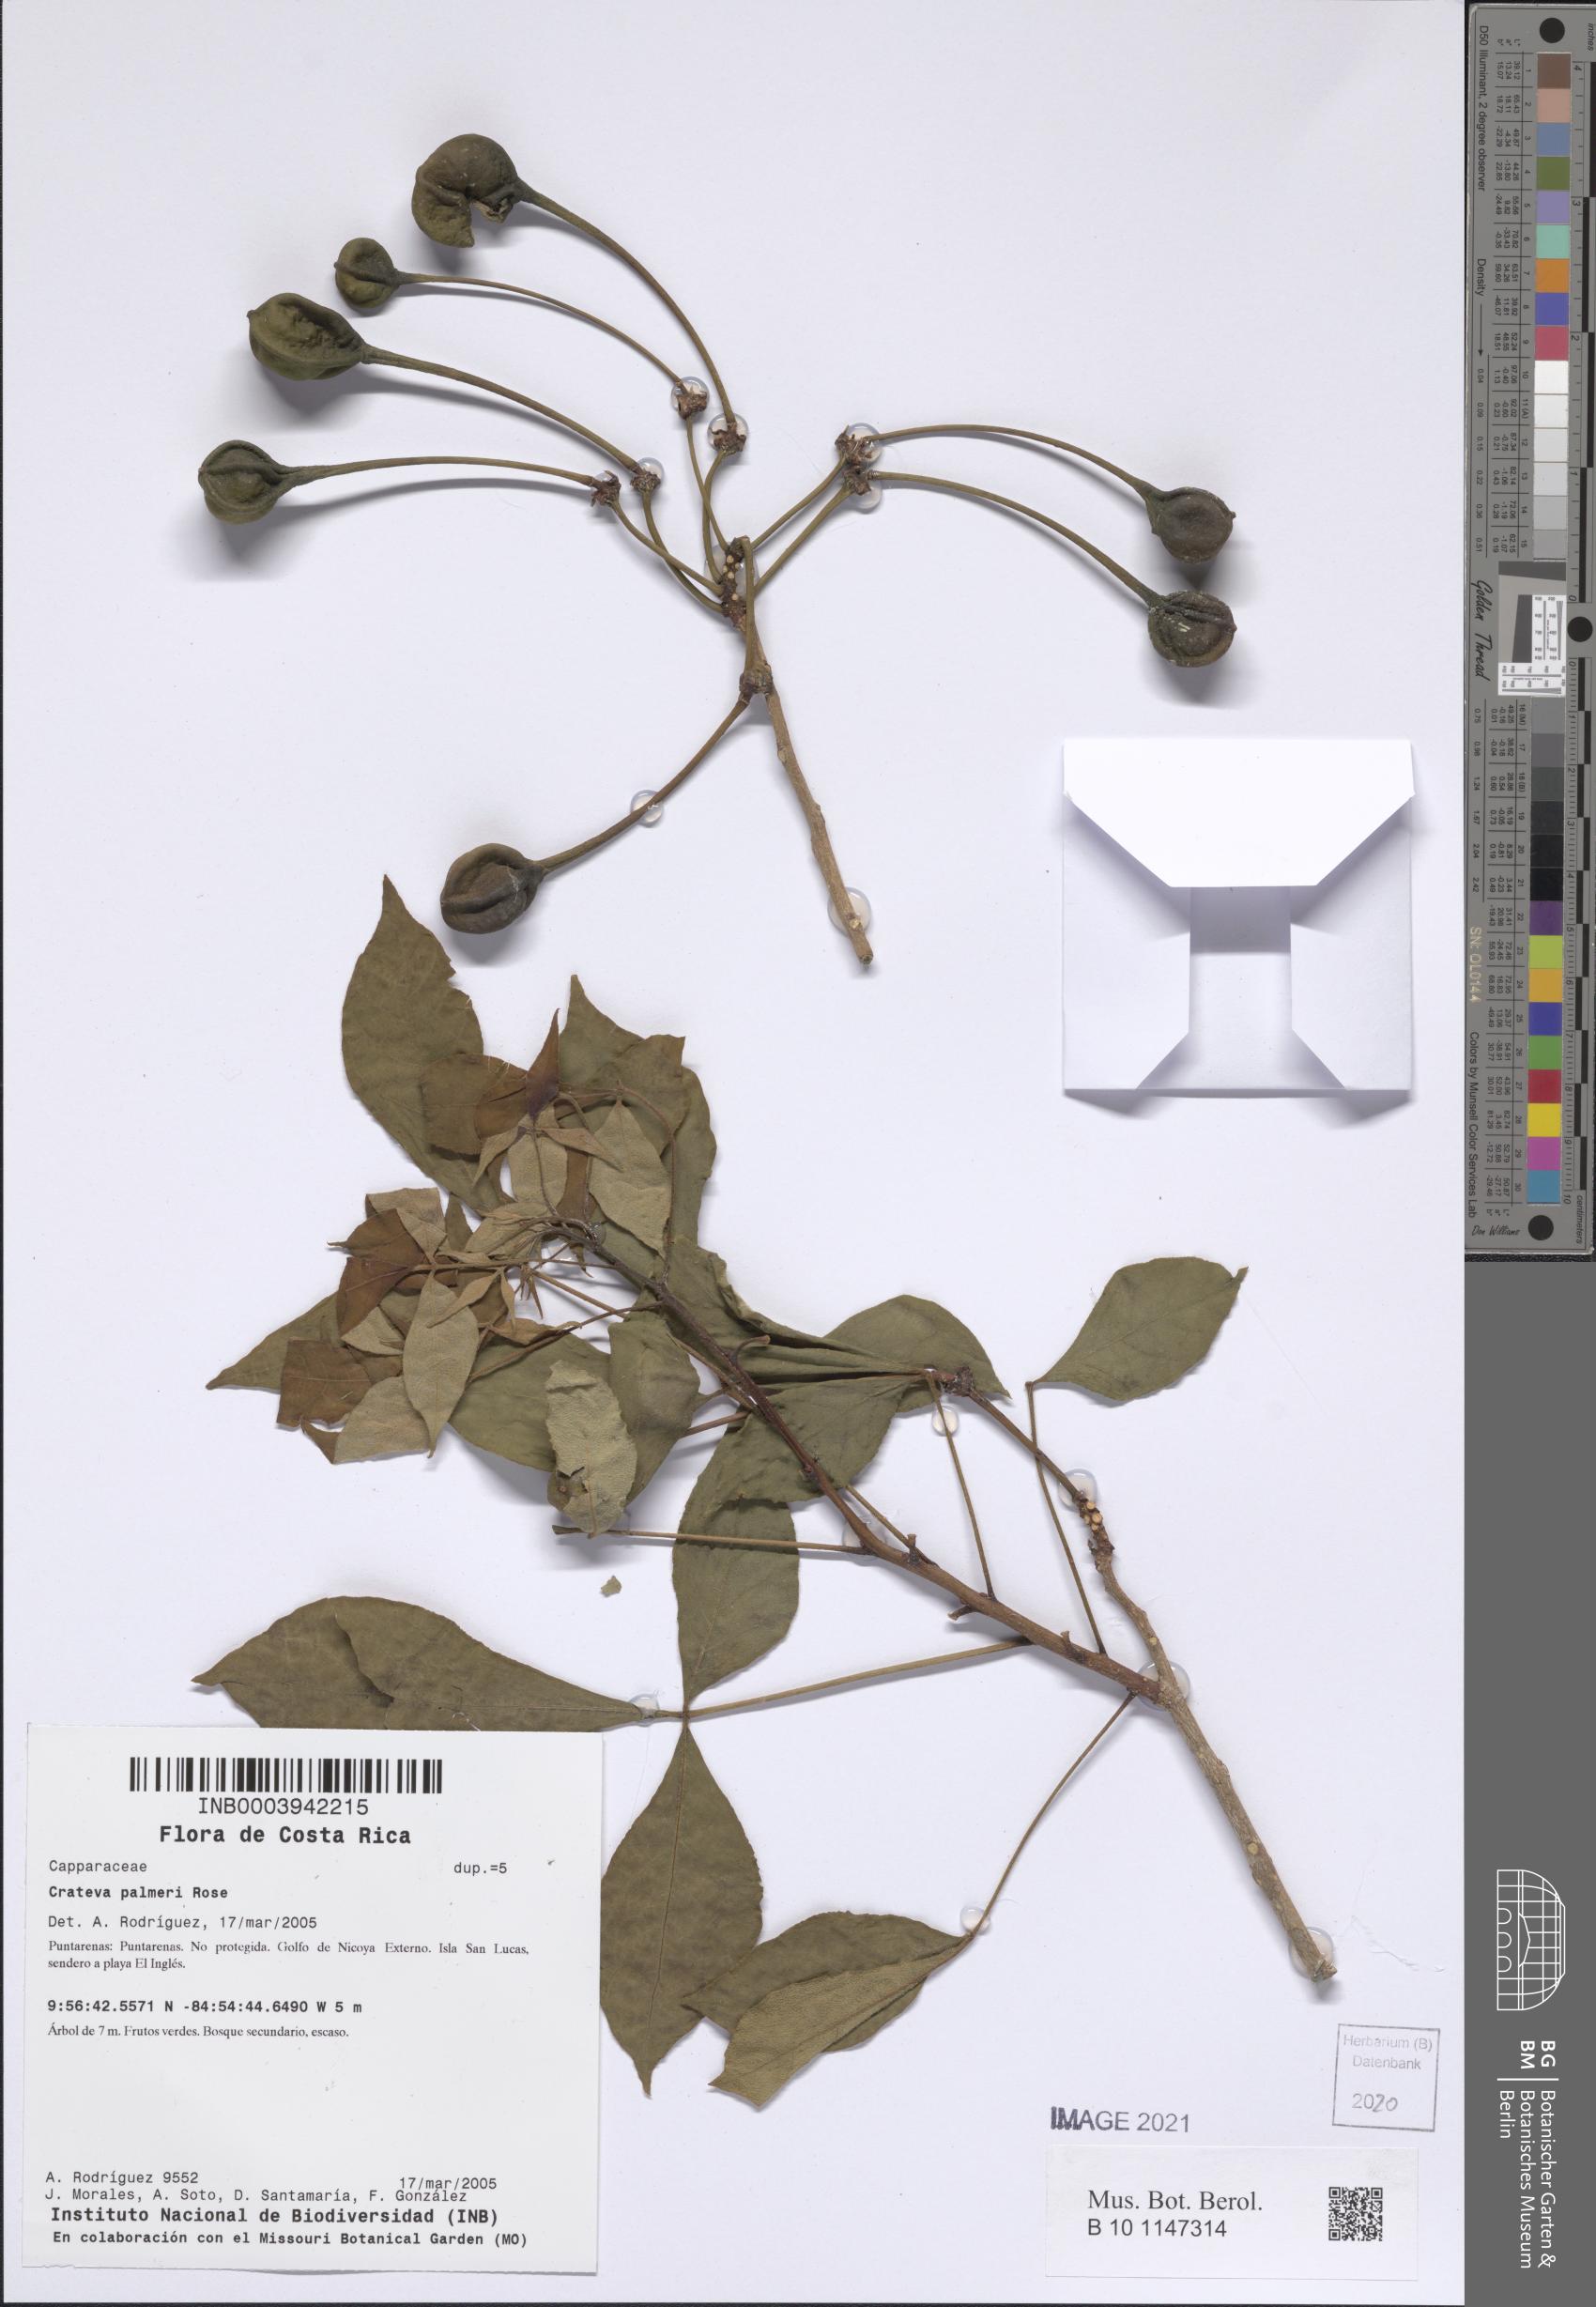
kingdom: Plantae
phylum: Tracheophyta
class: Magnoliopsida
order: Brassicales
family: Capparaceae
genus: Crateva
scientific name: Crateva palmeri
